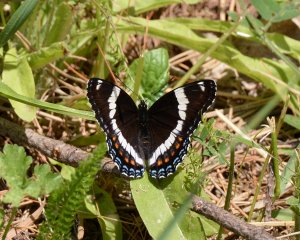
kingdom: Animalia
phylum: Arthropoda
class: Insecta
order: Lepidoptera
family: Nymphalidae
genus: Limenitis
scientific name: Limenitis arthemis
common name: Red-spotted Admiral
